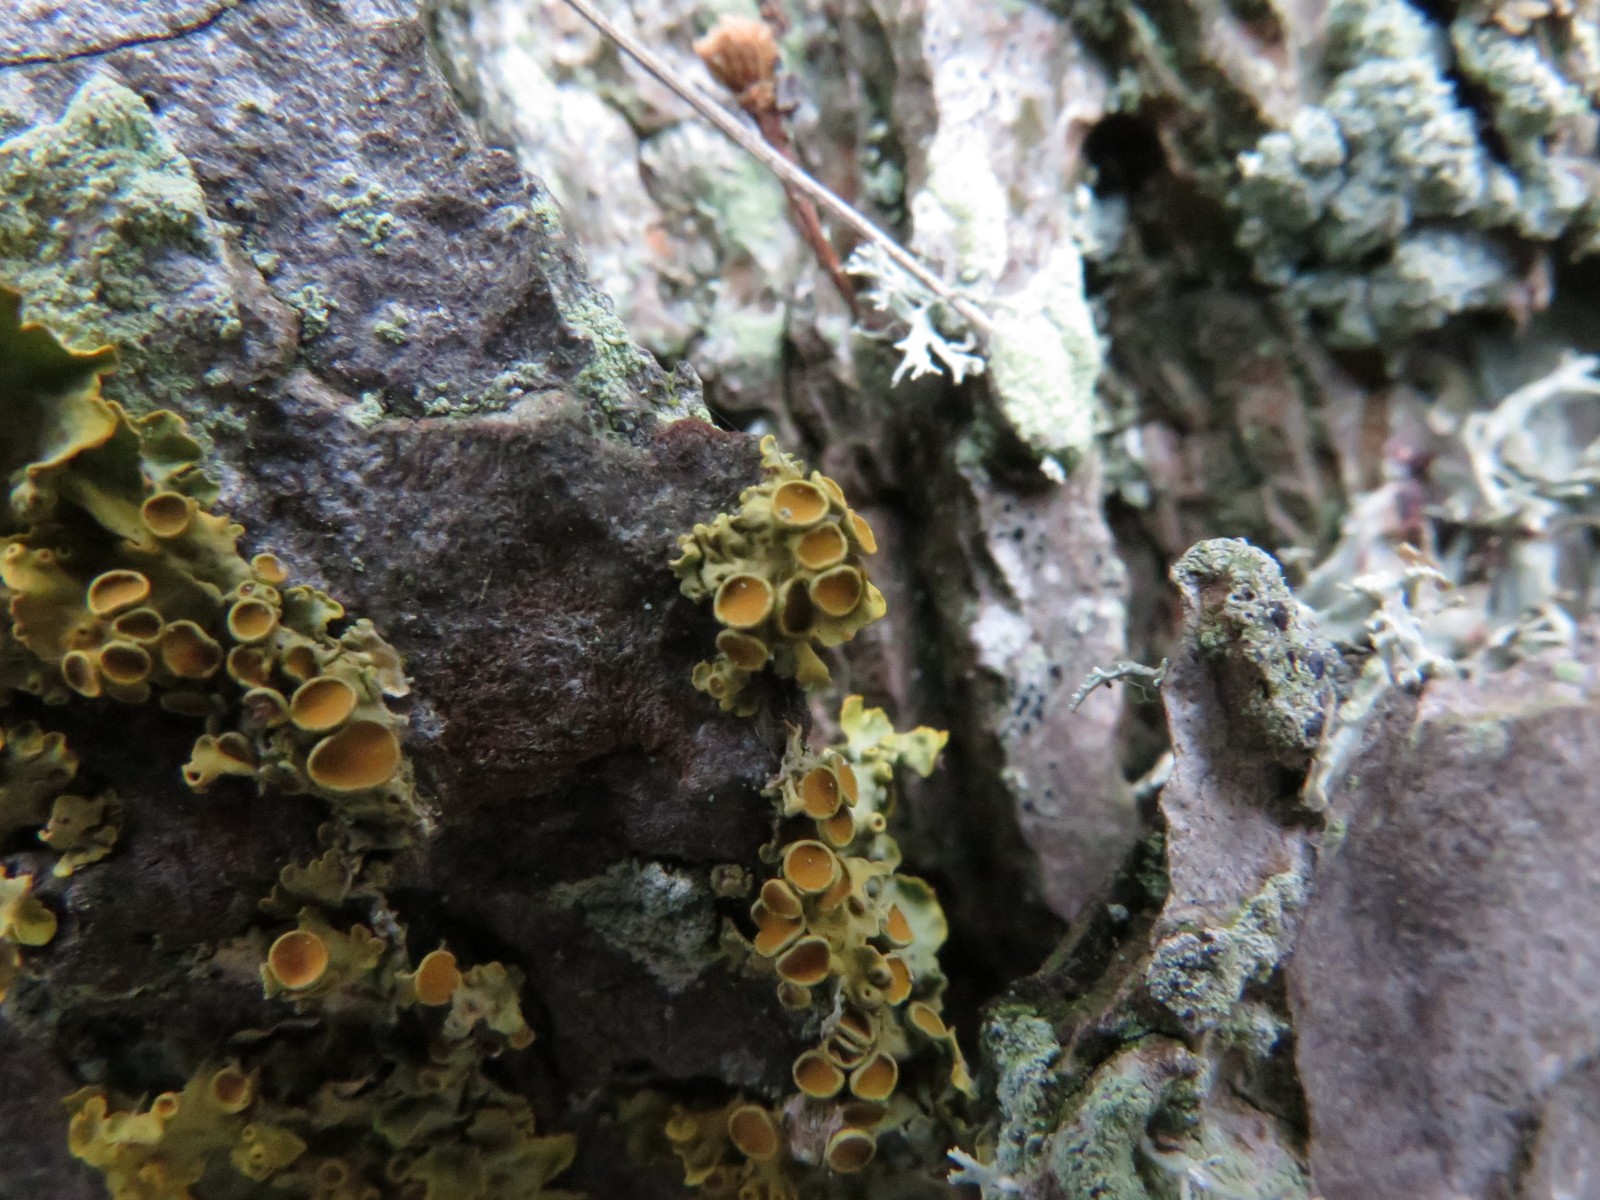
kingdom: Fungi
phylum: Ascomycota
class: Lecanoromycetes
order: Teloschistales
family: Teloschistaceae
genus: Xanthoria
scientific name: Xanthoria parietina
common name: almindelig væggelav
